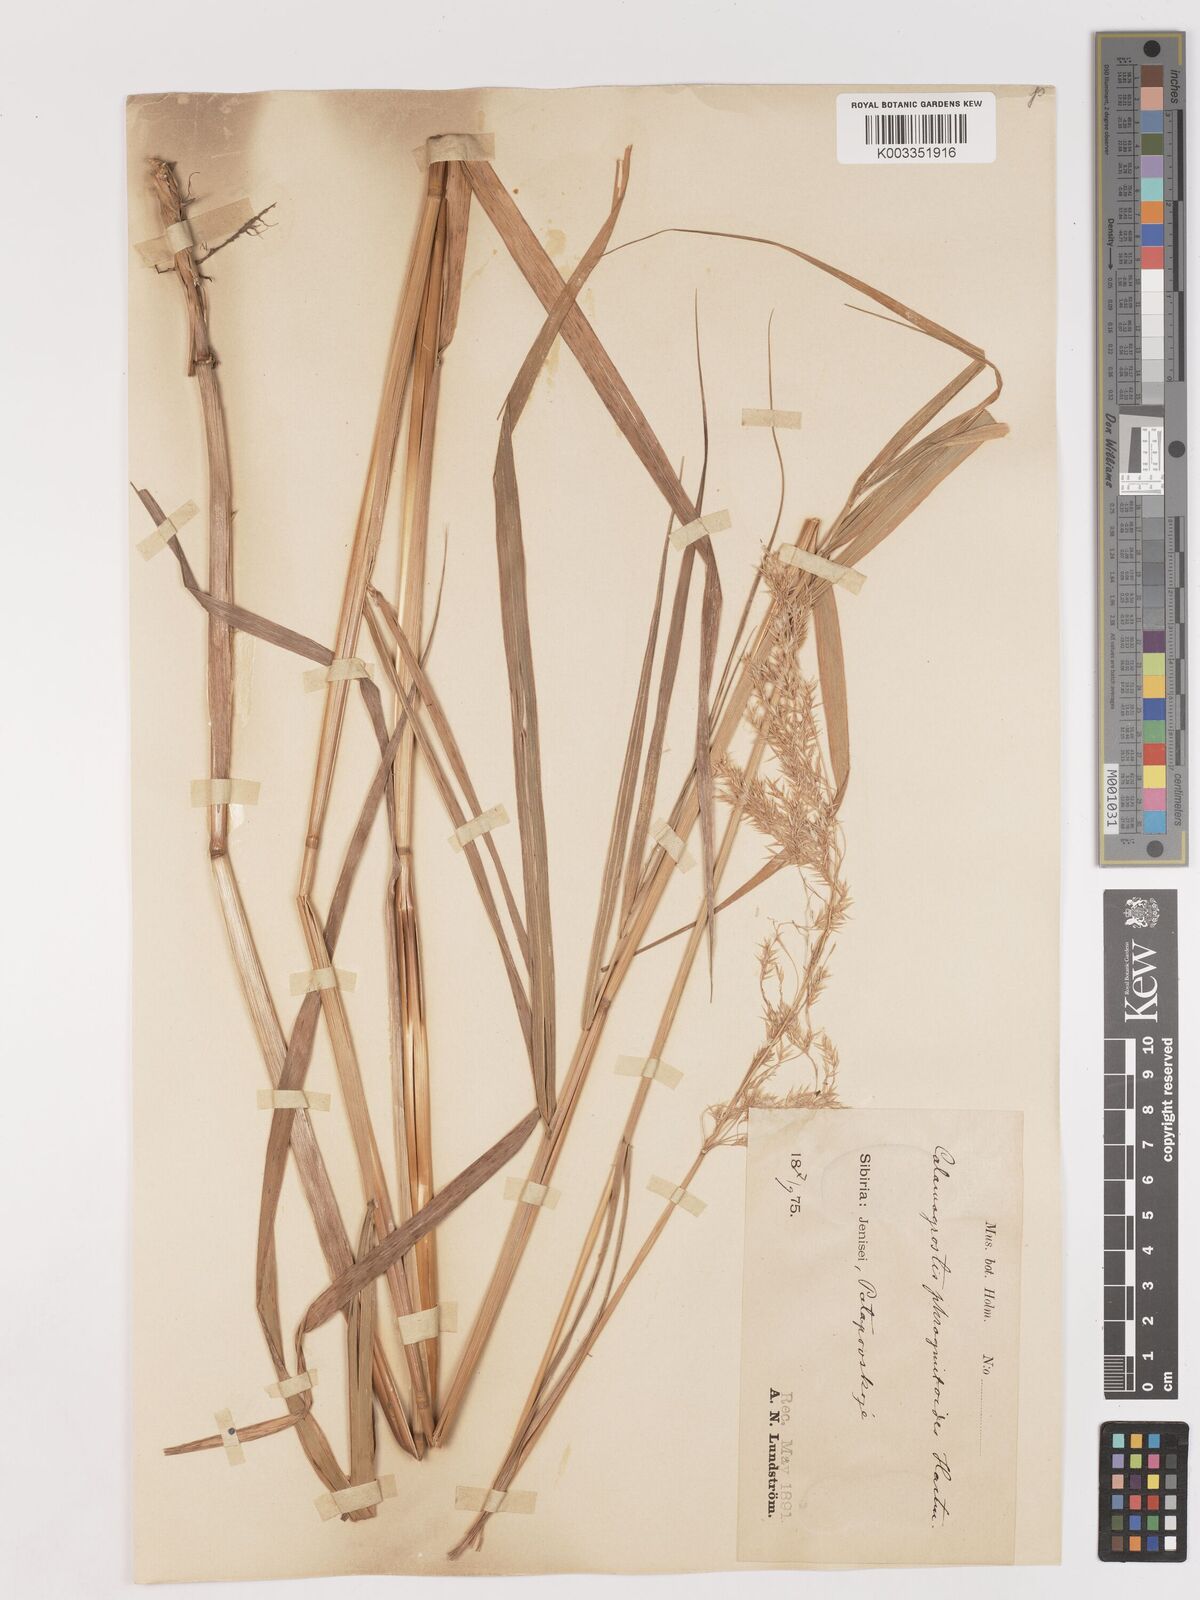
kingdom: Plantae
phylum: Tracheophyta
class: Liliopsida
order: Poales
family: Poaceae
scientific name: Poaceae
